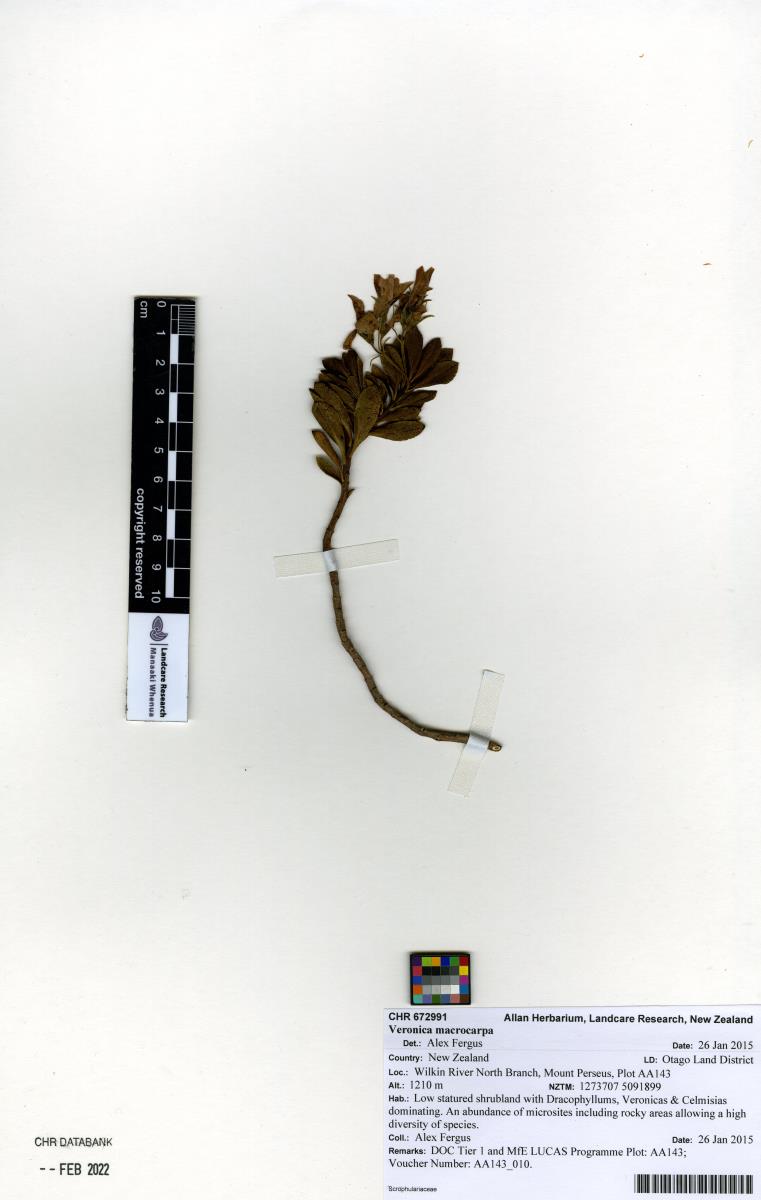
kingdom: Plantae
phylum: Tracheophyta
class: Magnoliopsida
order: Lamiales
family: Plantaginaceae
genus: Veronica
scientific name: Veronica macrantha
